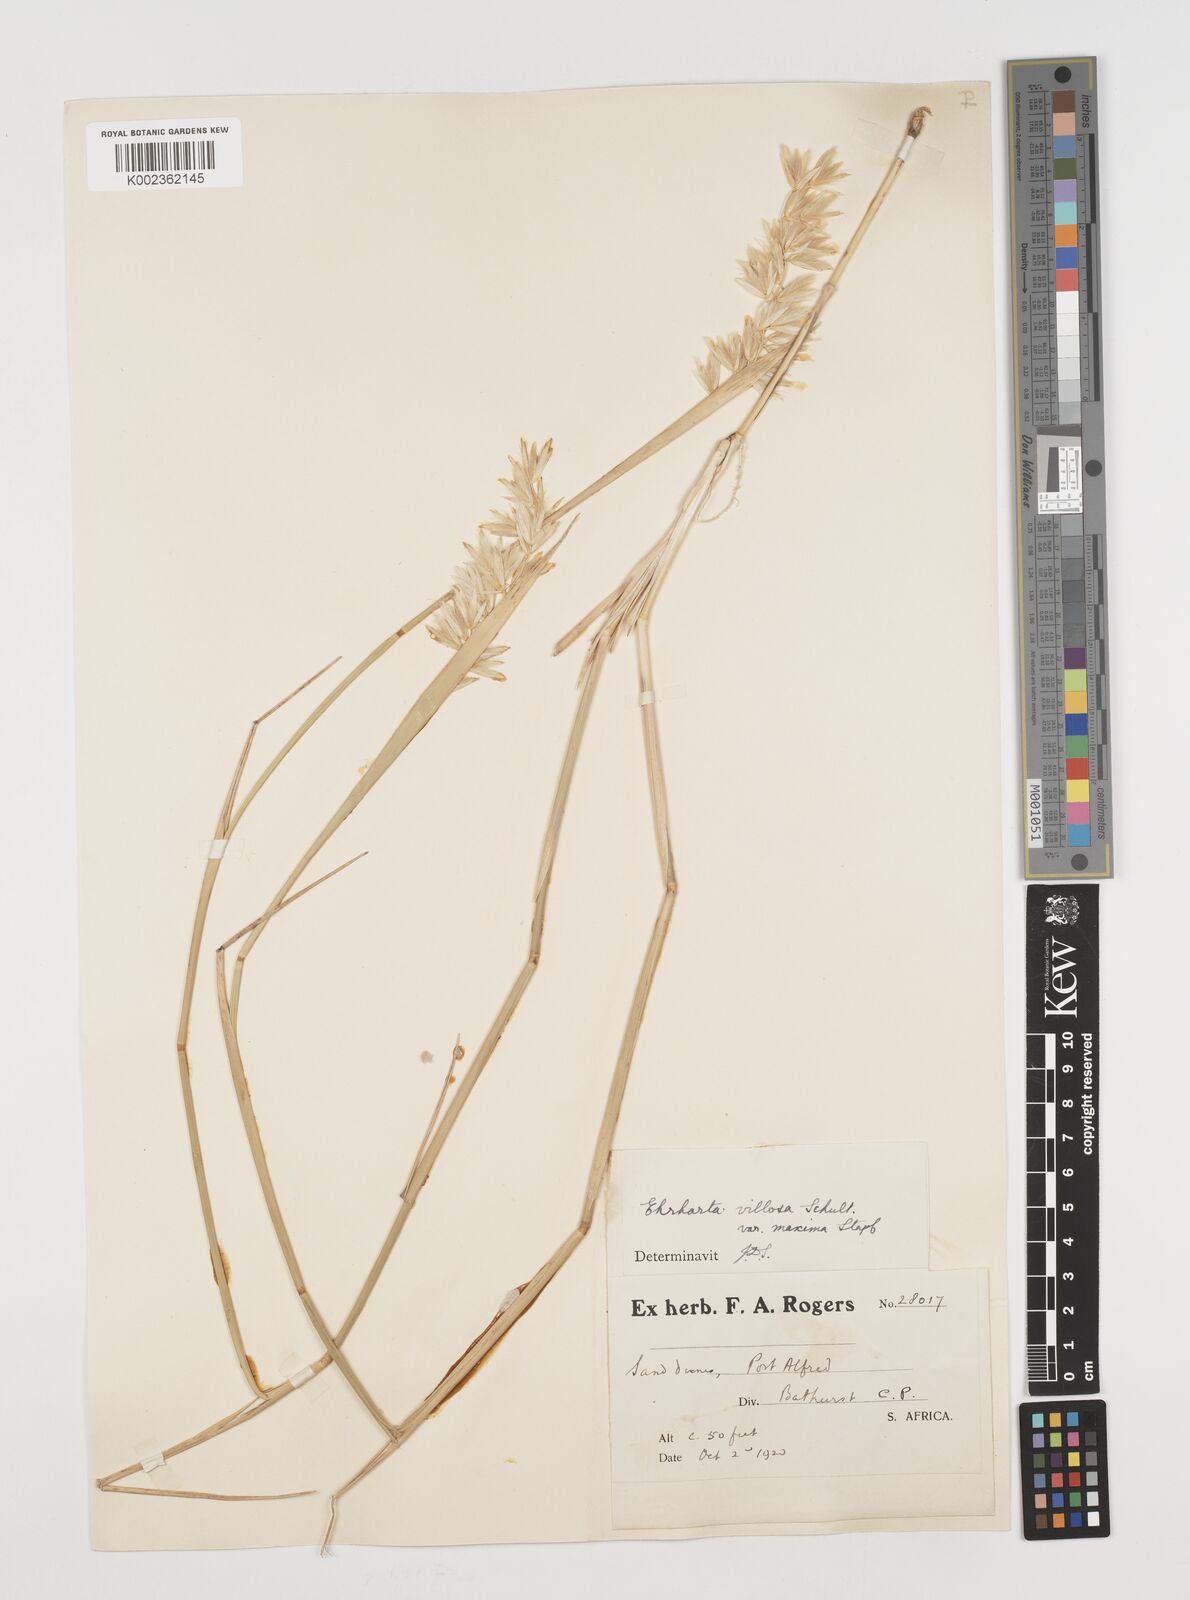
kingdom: Plantae
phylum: Tracheophyta
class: Liliopsida
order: Poales
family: Poaceae
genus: Ehrharta
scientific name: Ehrharta villosa
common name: Pyp grass
